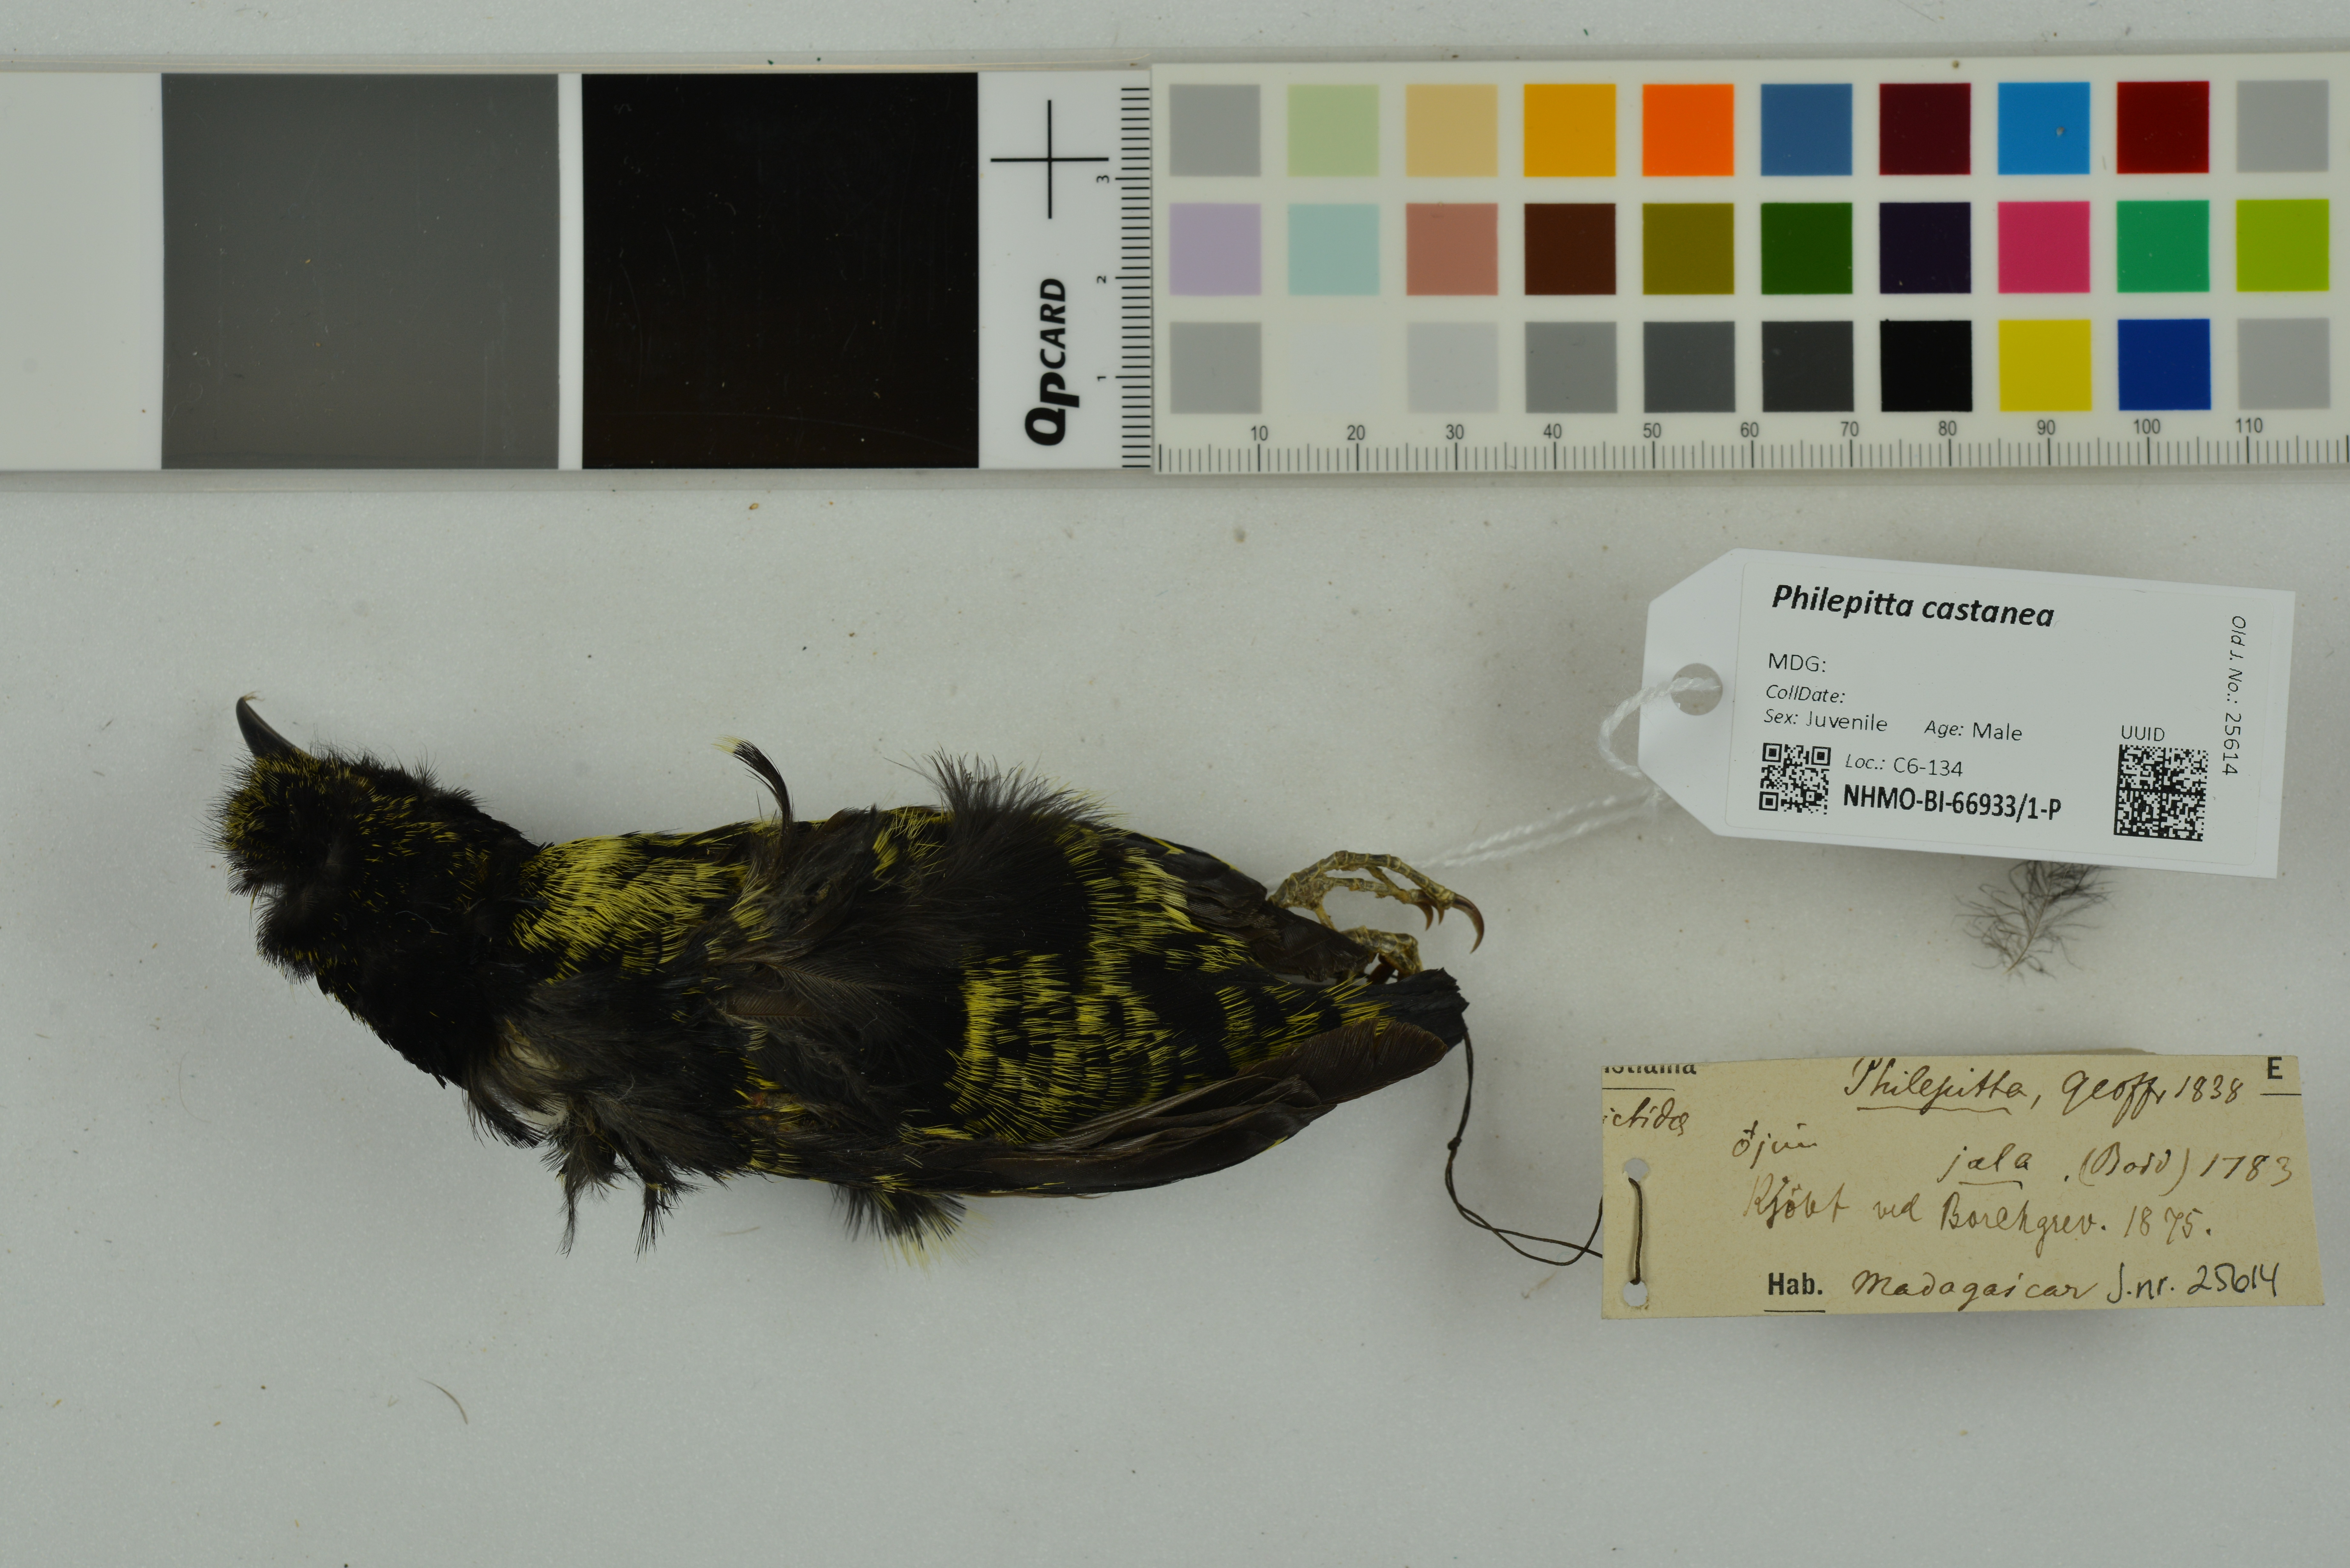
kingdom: Animalia
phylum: Chordata
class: Aves
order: Passeriformes
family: Philepittidae
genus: Philepitta
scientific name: Philepitta castanea
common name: Velvet asity
